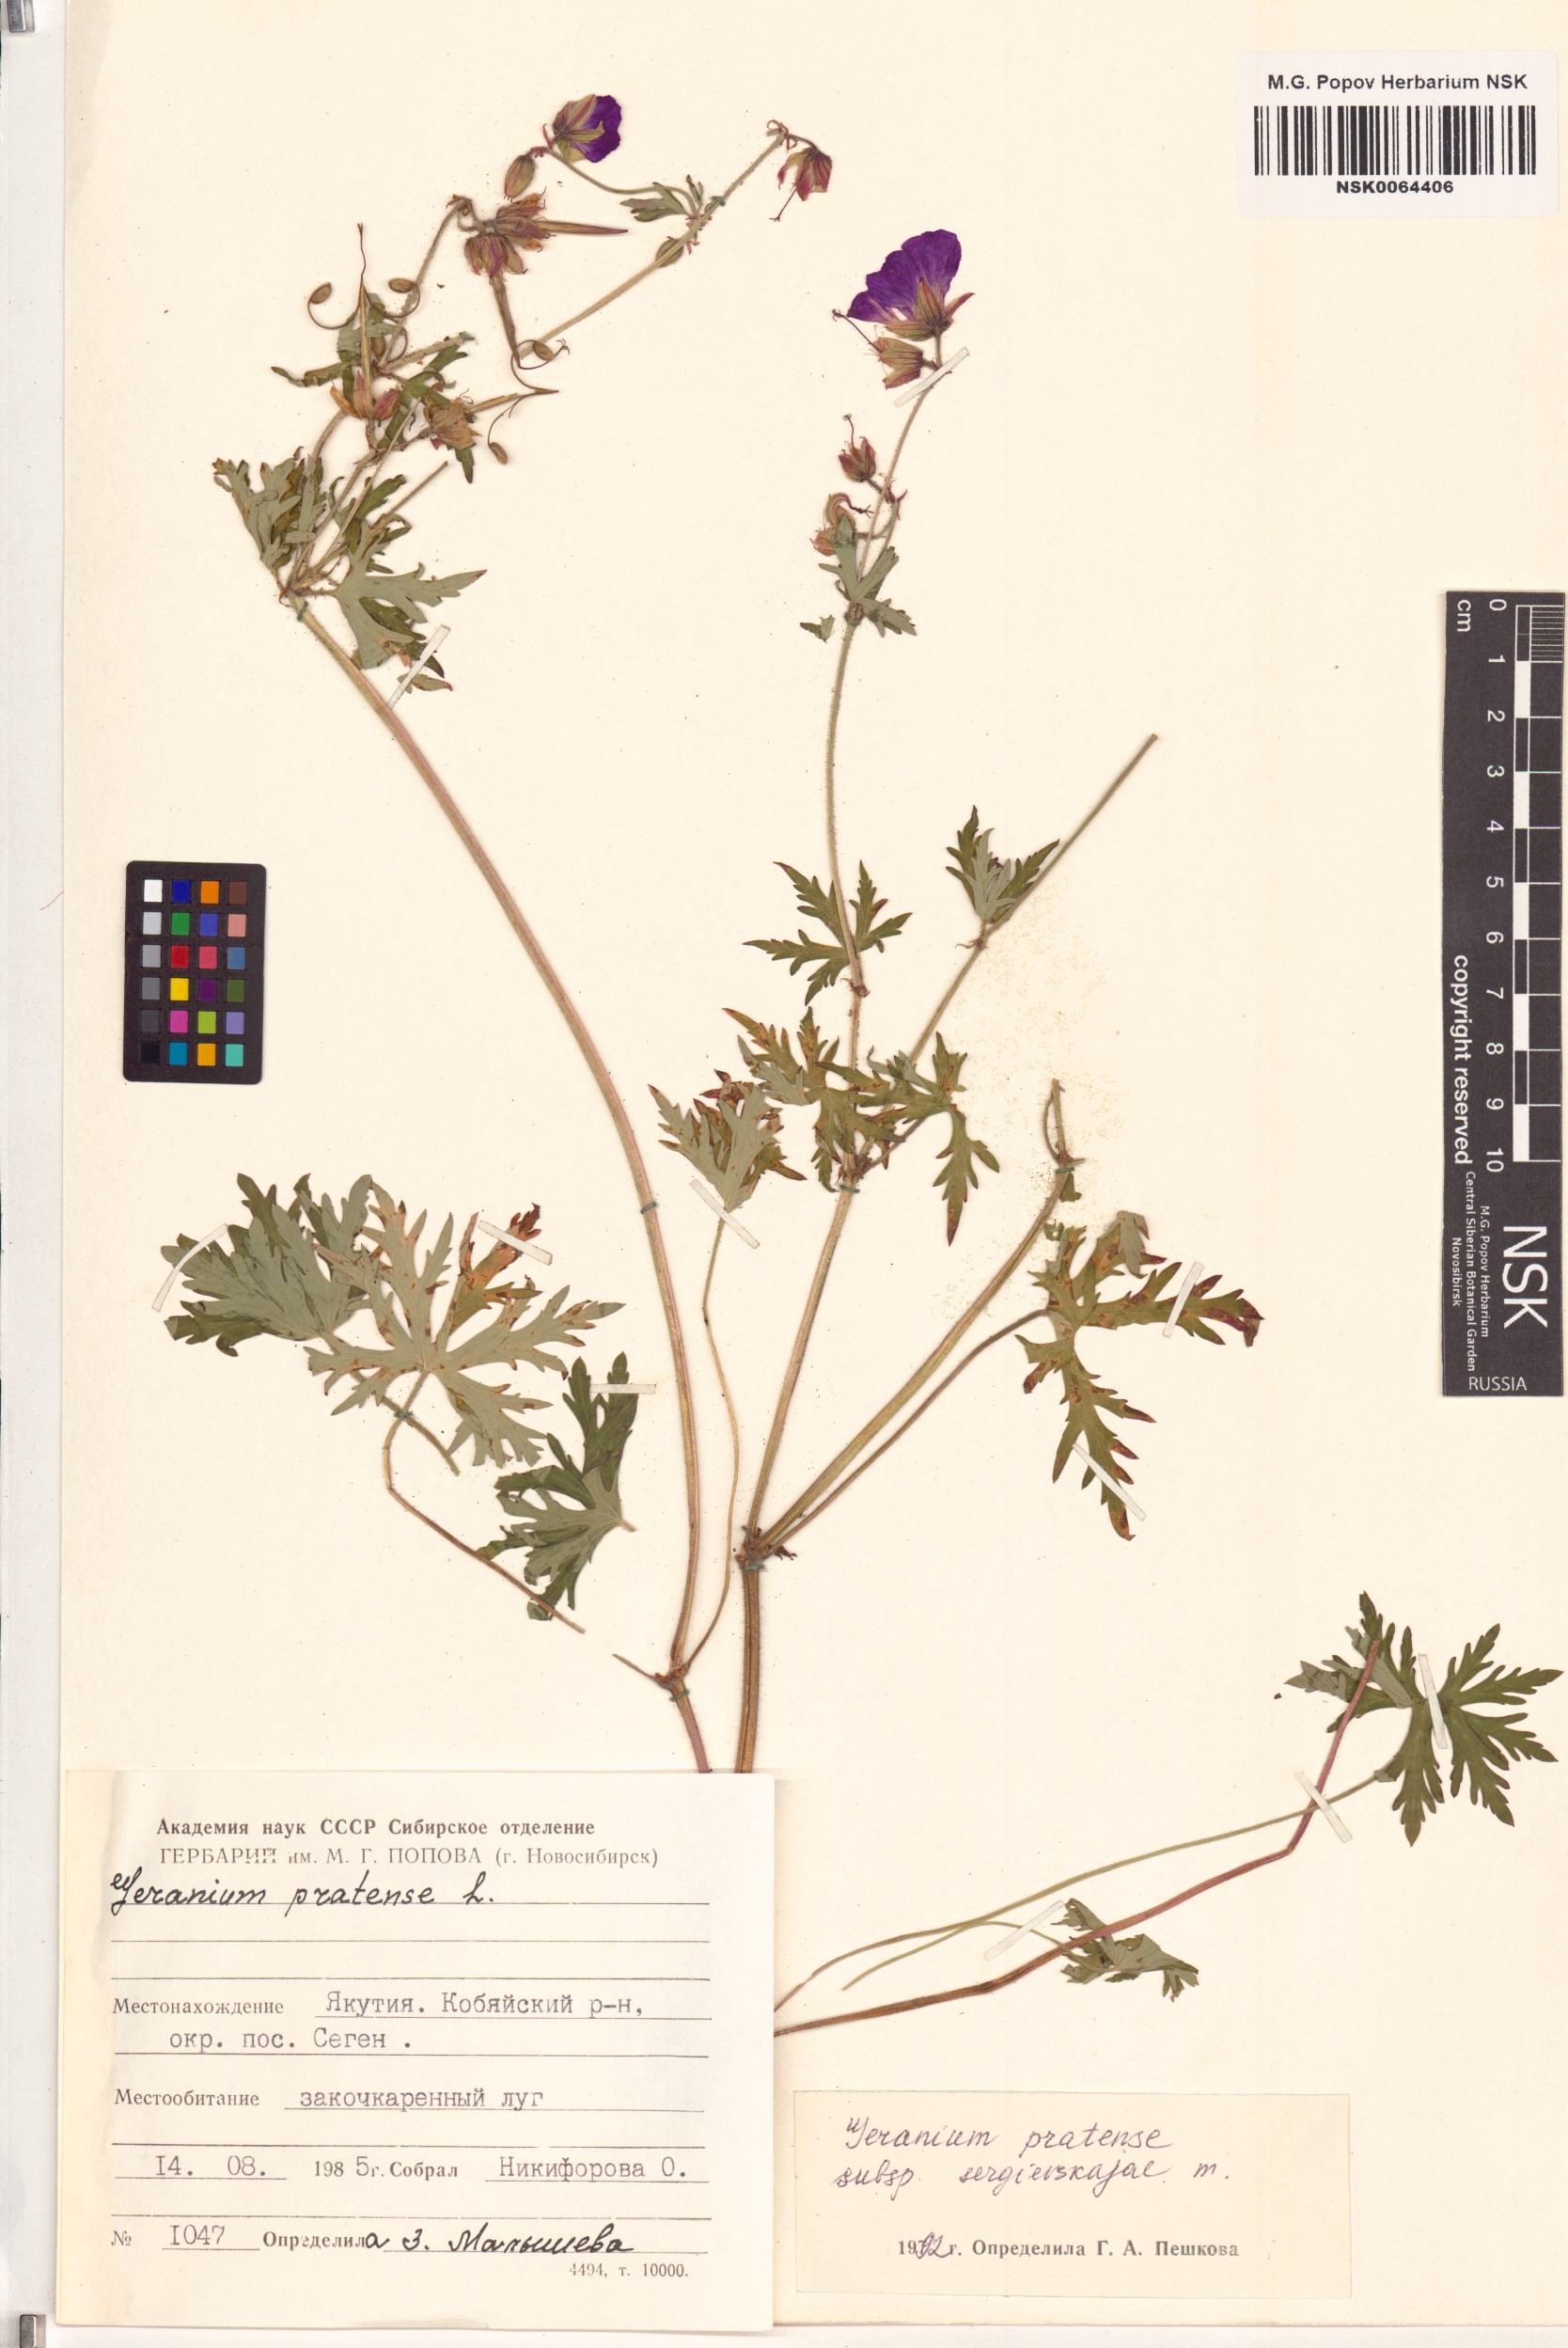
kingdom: Plantae
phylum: Tracheophyta
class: Magnoliopsida
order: Geraniales
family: Geraniaceae
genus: Geranium
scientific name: Geranium pratense
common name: Meadow crane's-bill
